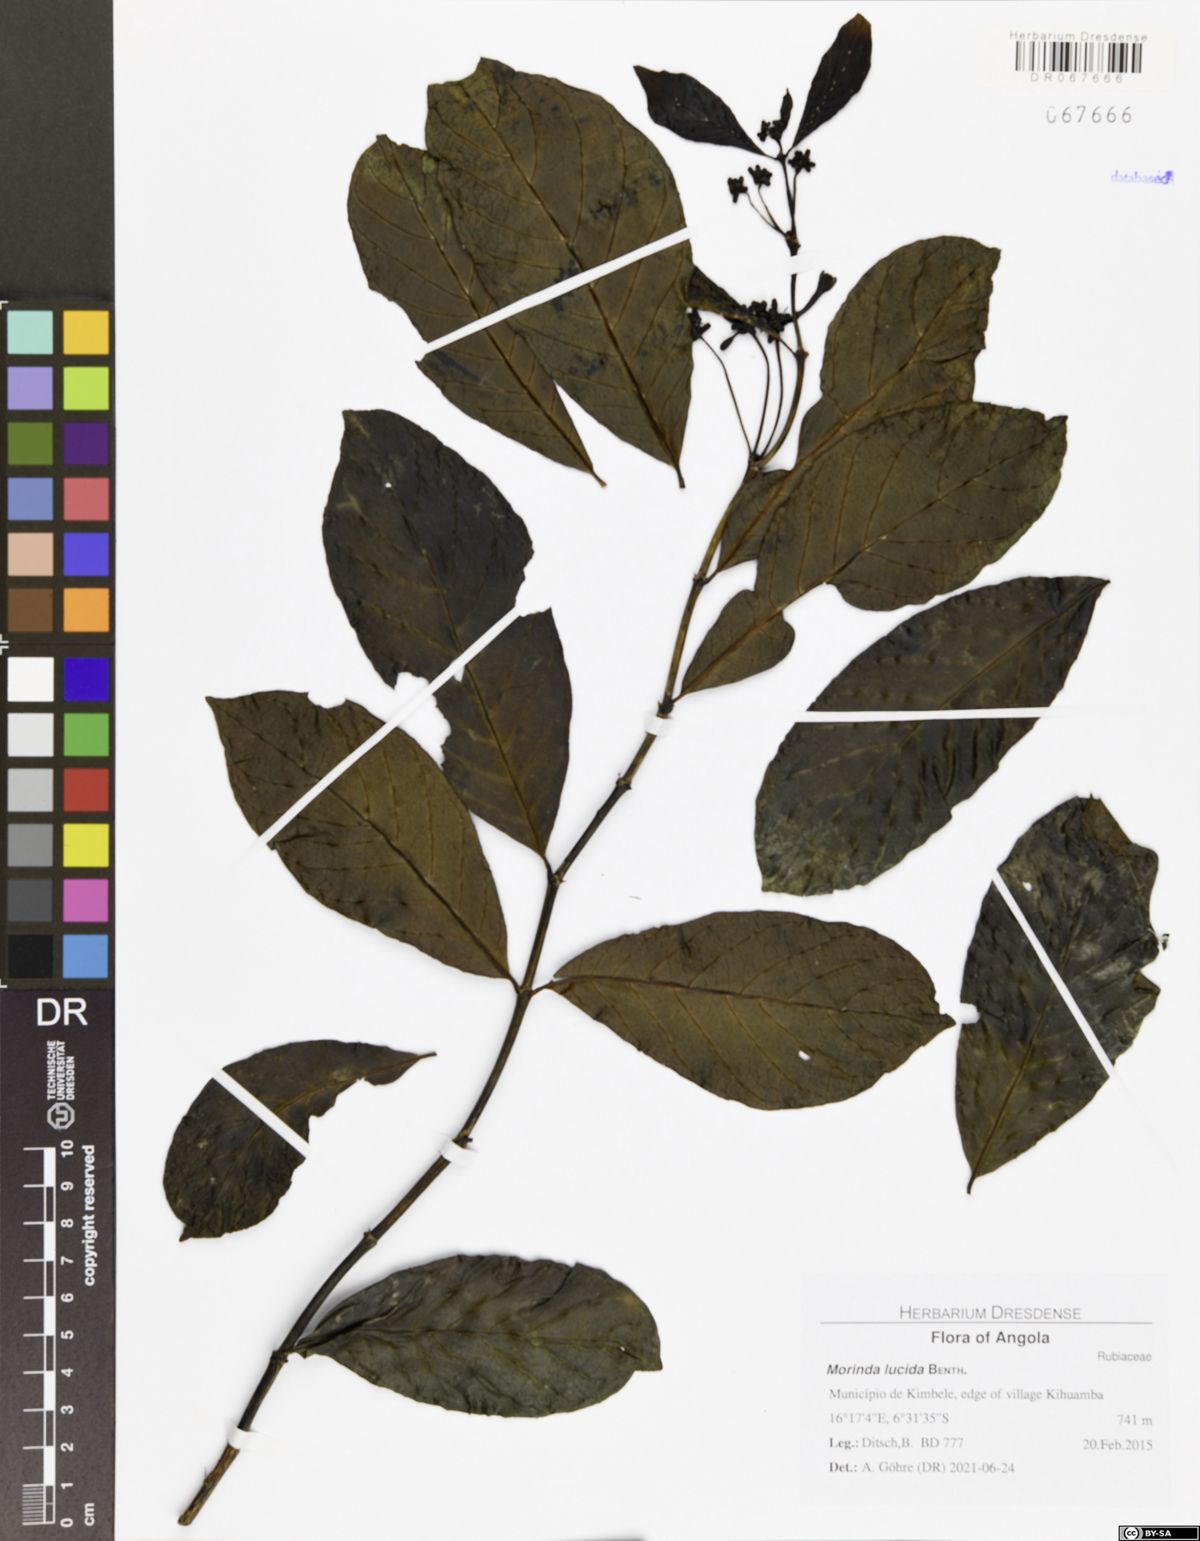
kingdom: Plantae
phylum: Tracheophyta
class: Magnoliopsida
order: Gentianales
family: Rubiaceae
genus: Morinda
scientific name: Morinda lucida
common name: Brimstonetree
